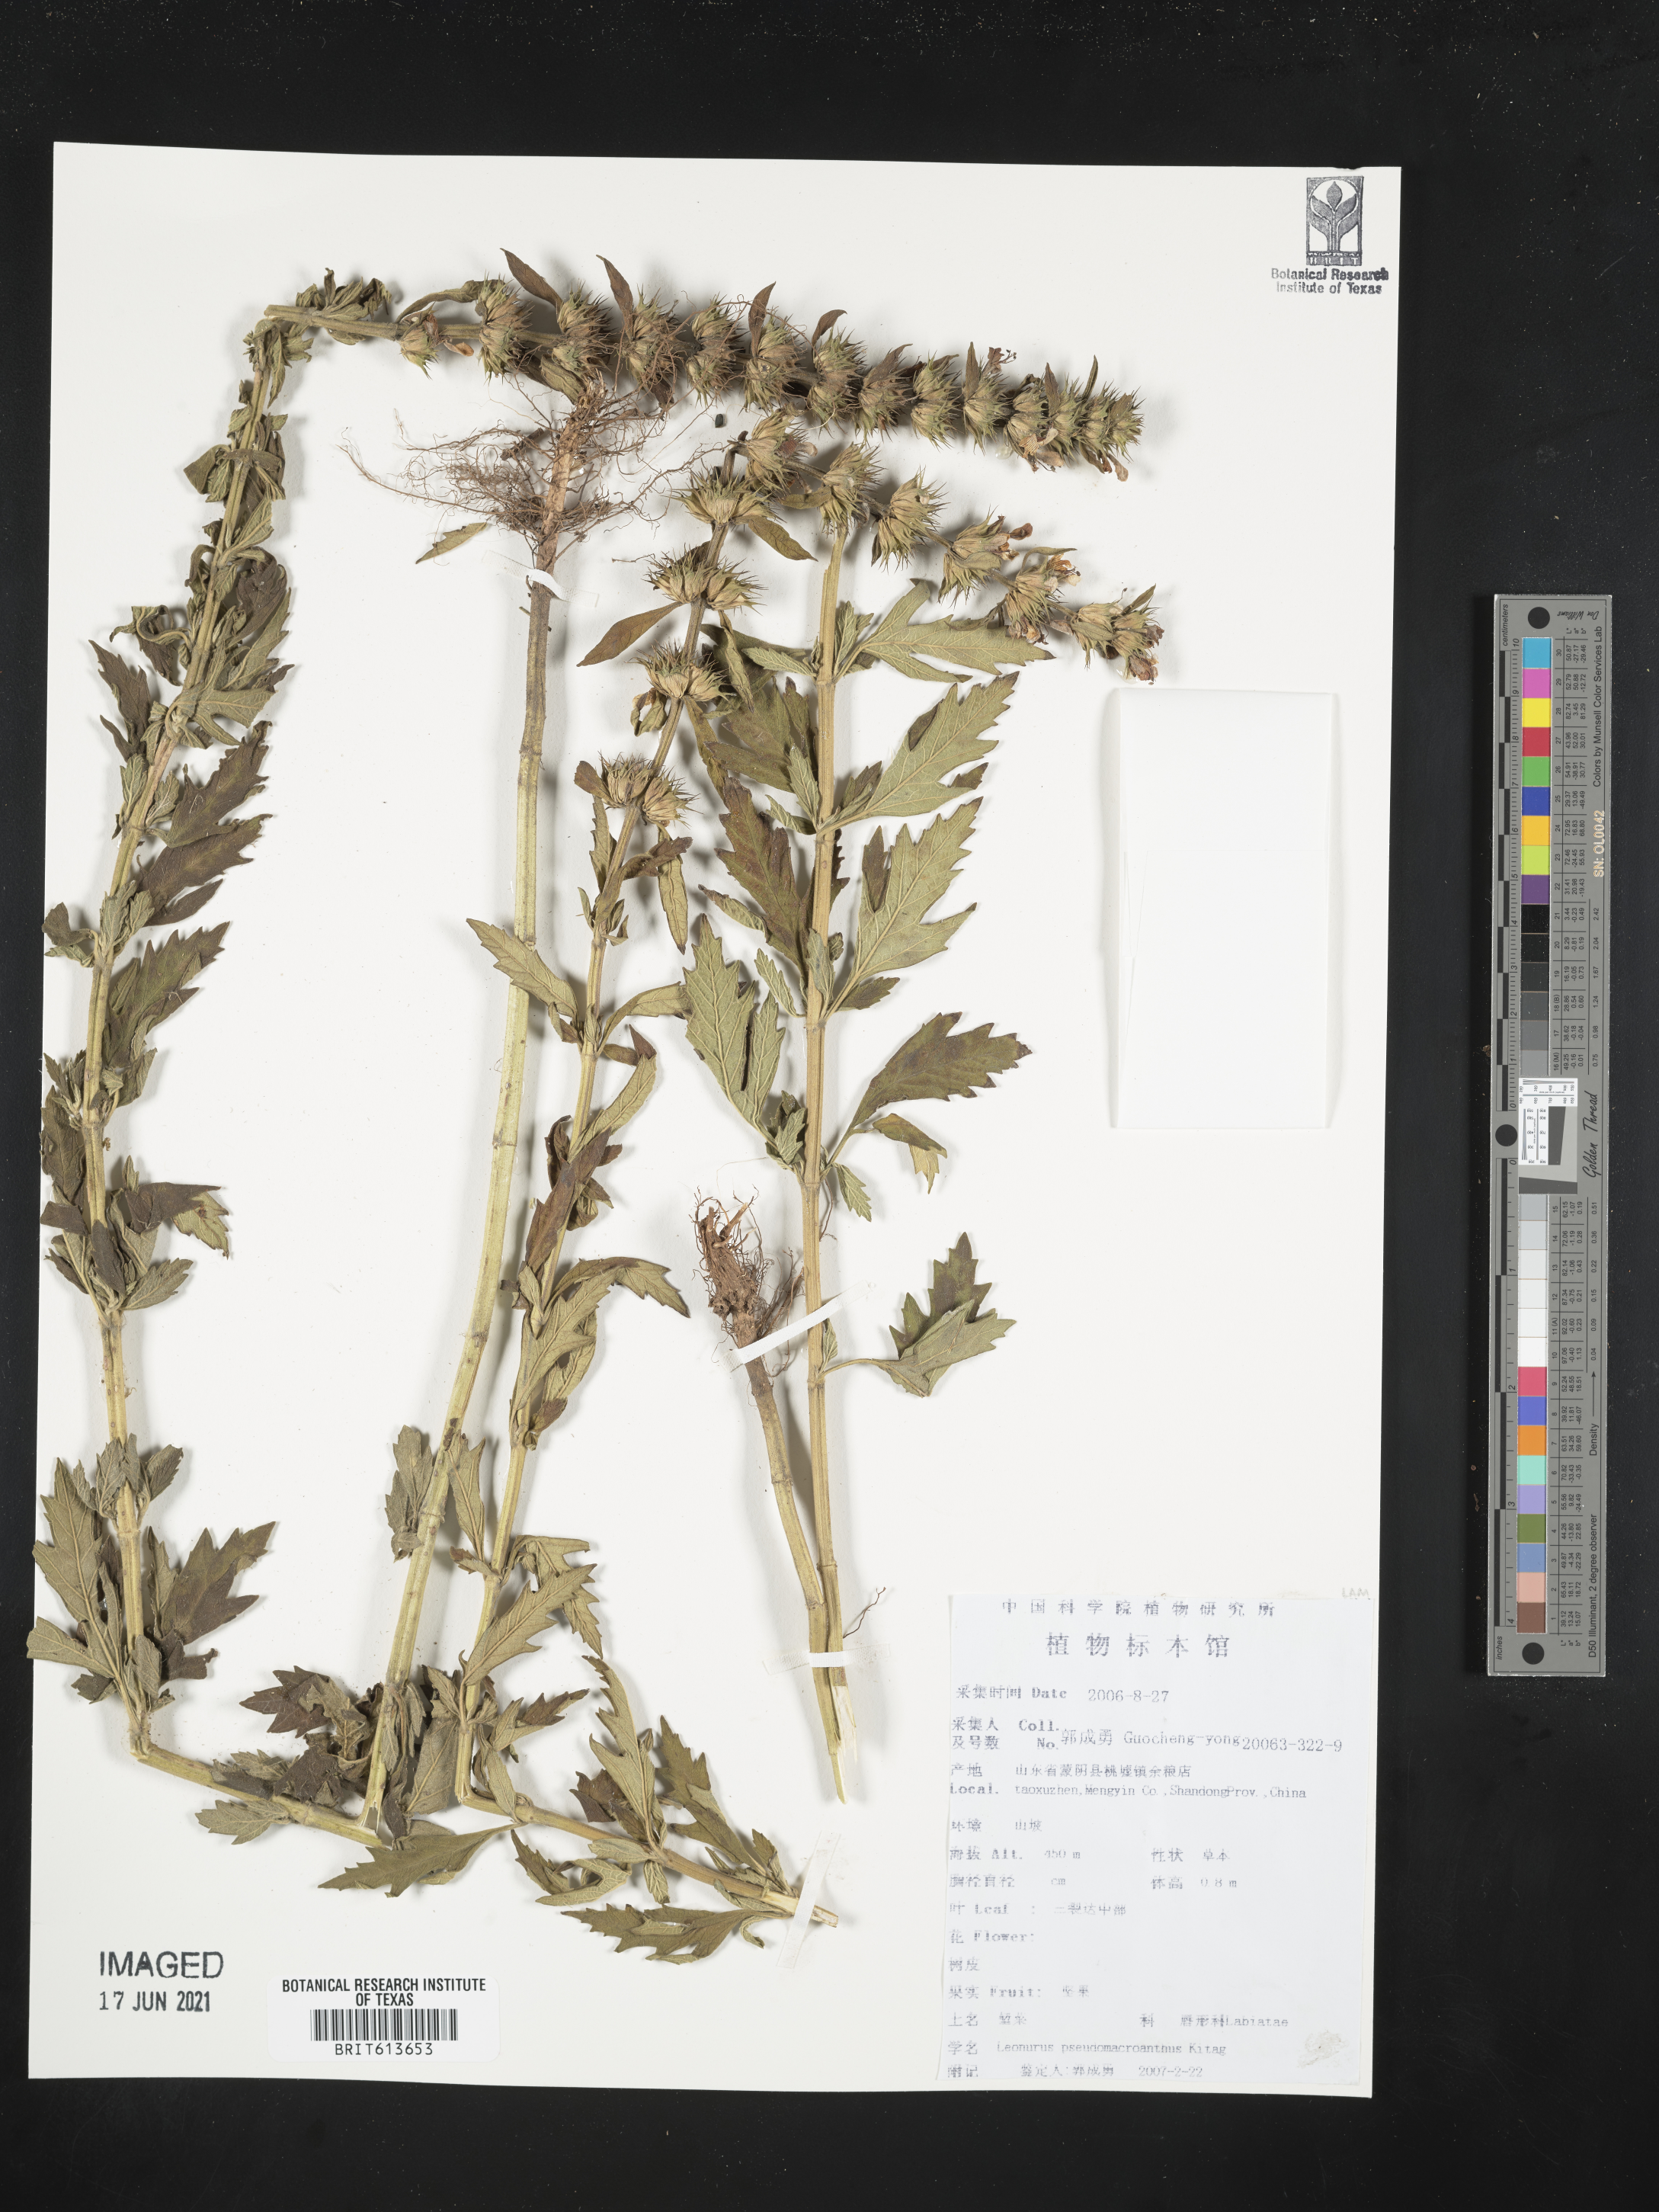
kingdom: Plantae
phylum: Tracheophyta
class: Magnoliopsida
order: Lamiales
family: Lamiaceae
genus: Leonurus
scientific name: Leonurus pseudomacranthus
